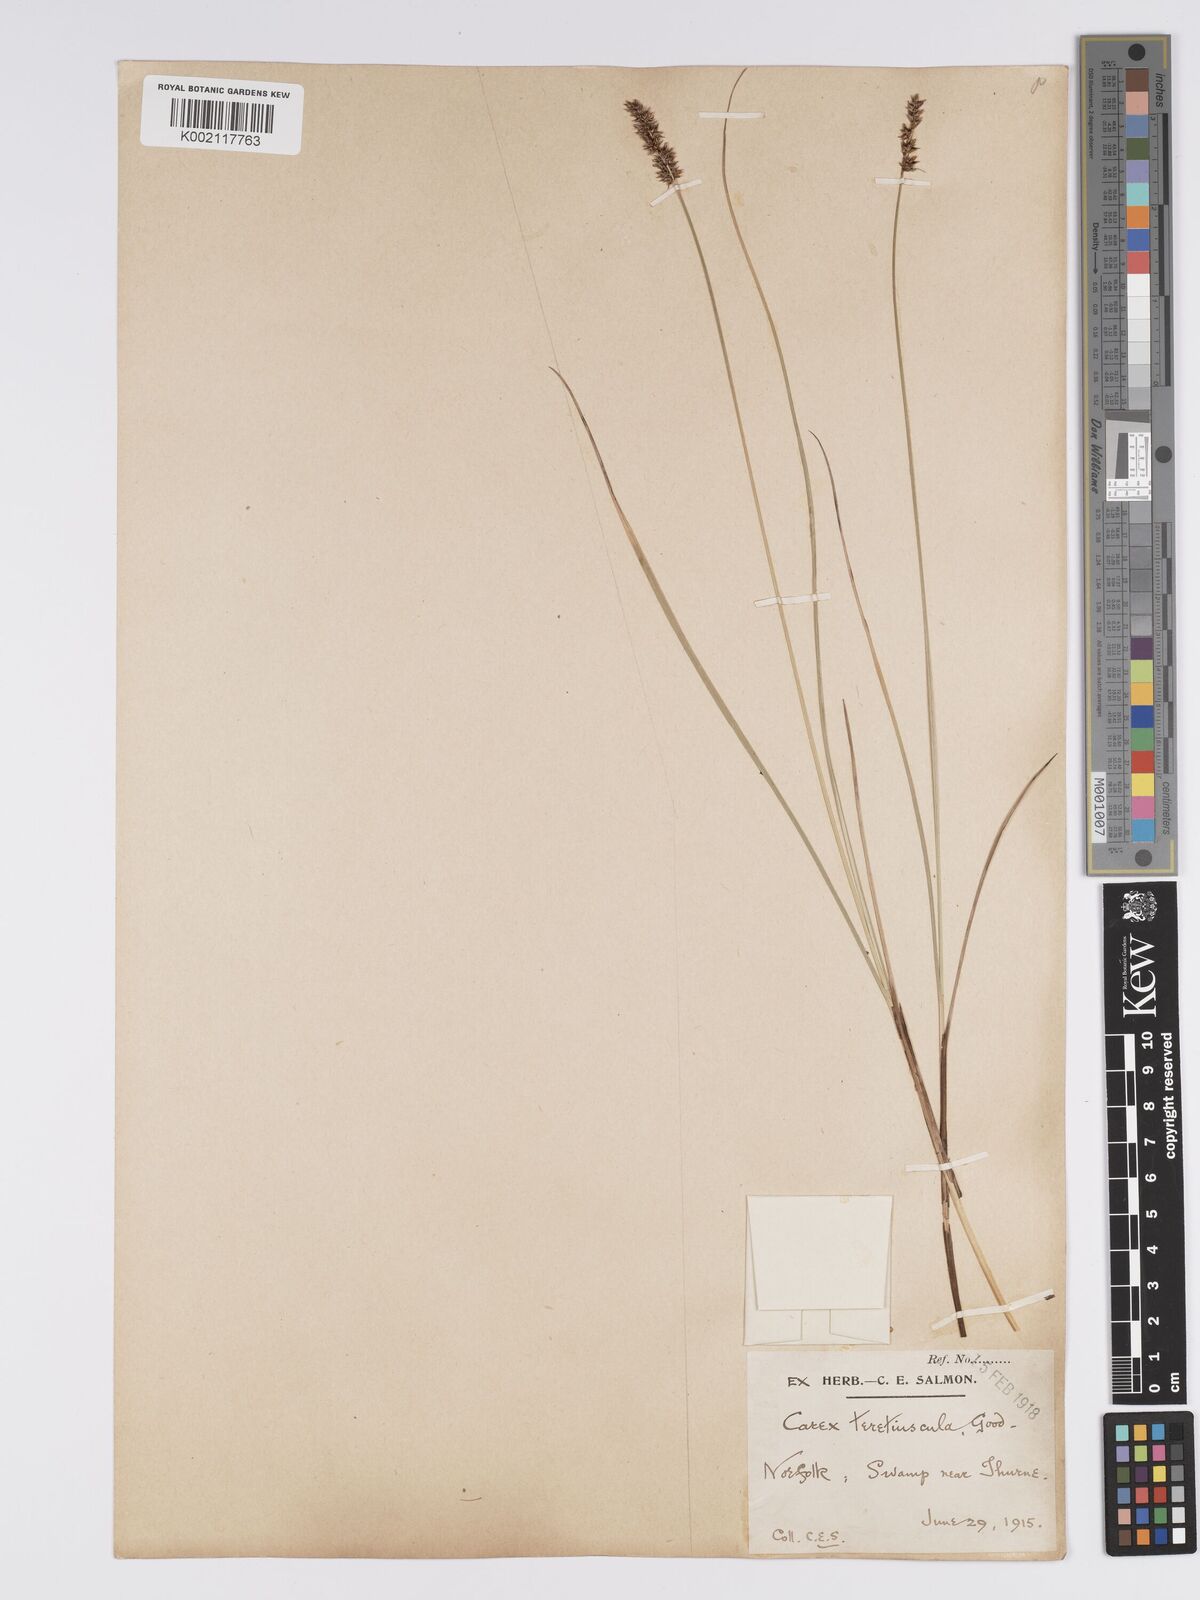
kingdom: Plantae
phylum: Tracheophyta
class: Liliopsida
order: Poales
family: Cyperaceae
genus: Carex
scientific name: Carex diandra
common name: Lesser tussock-sedge
